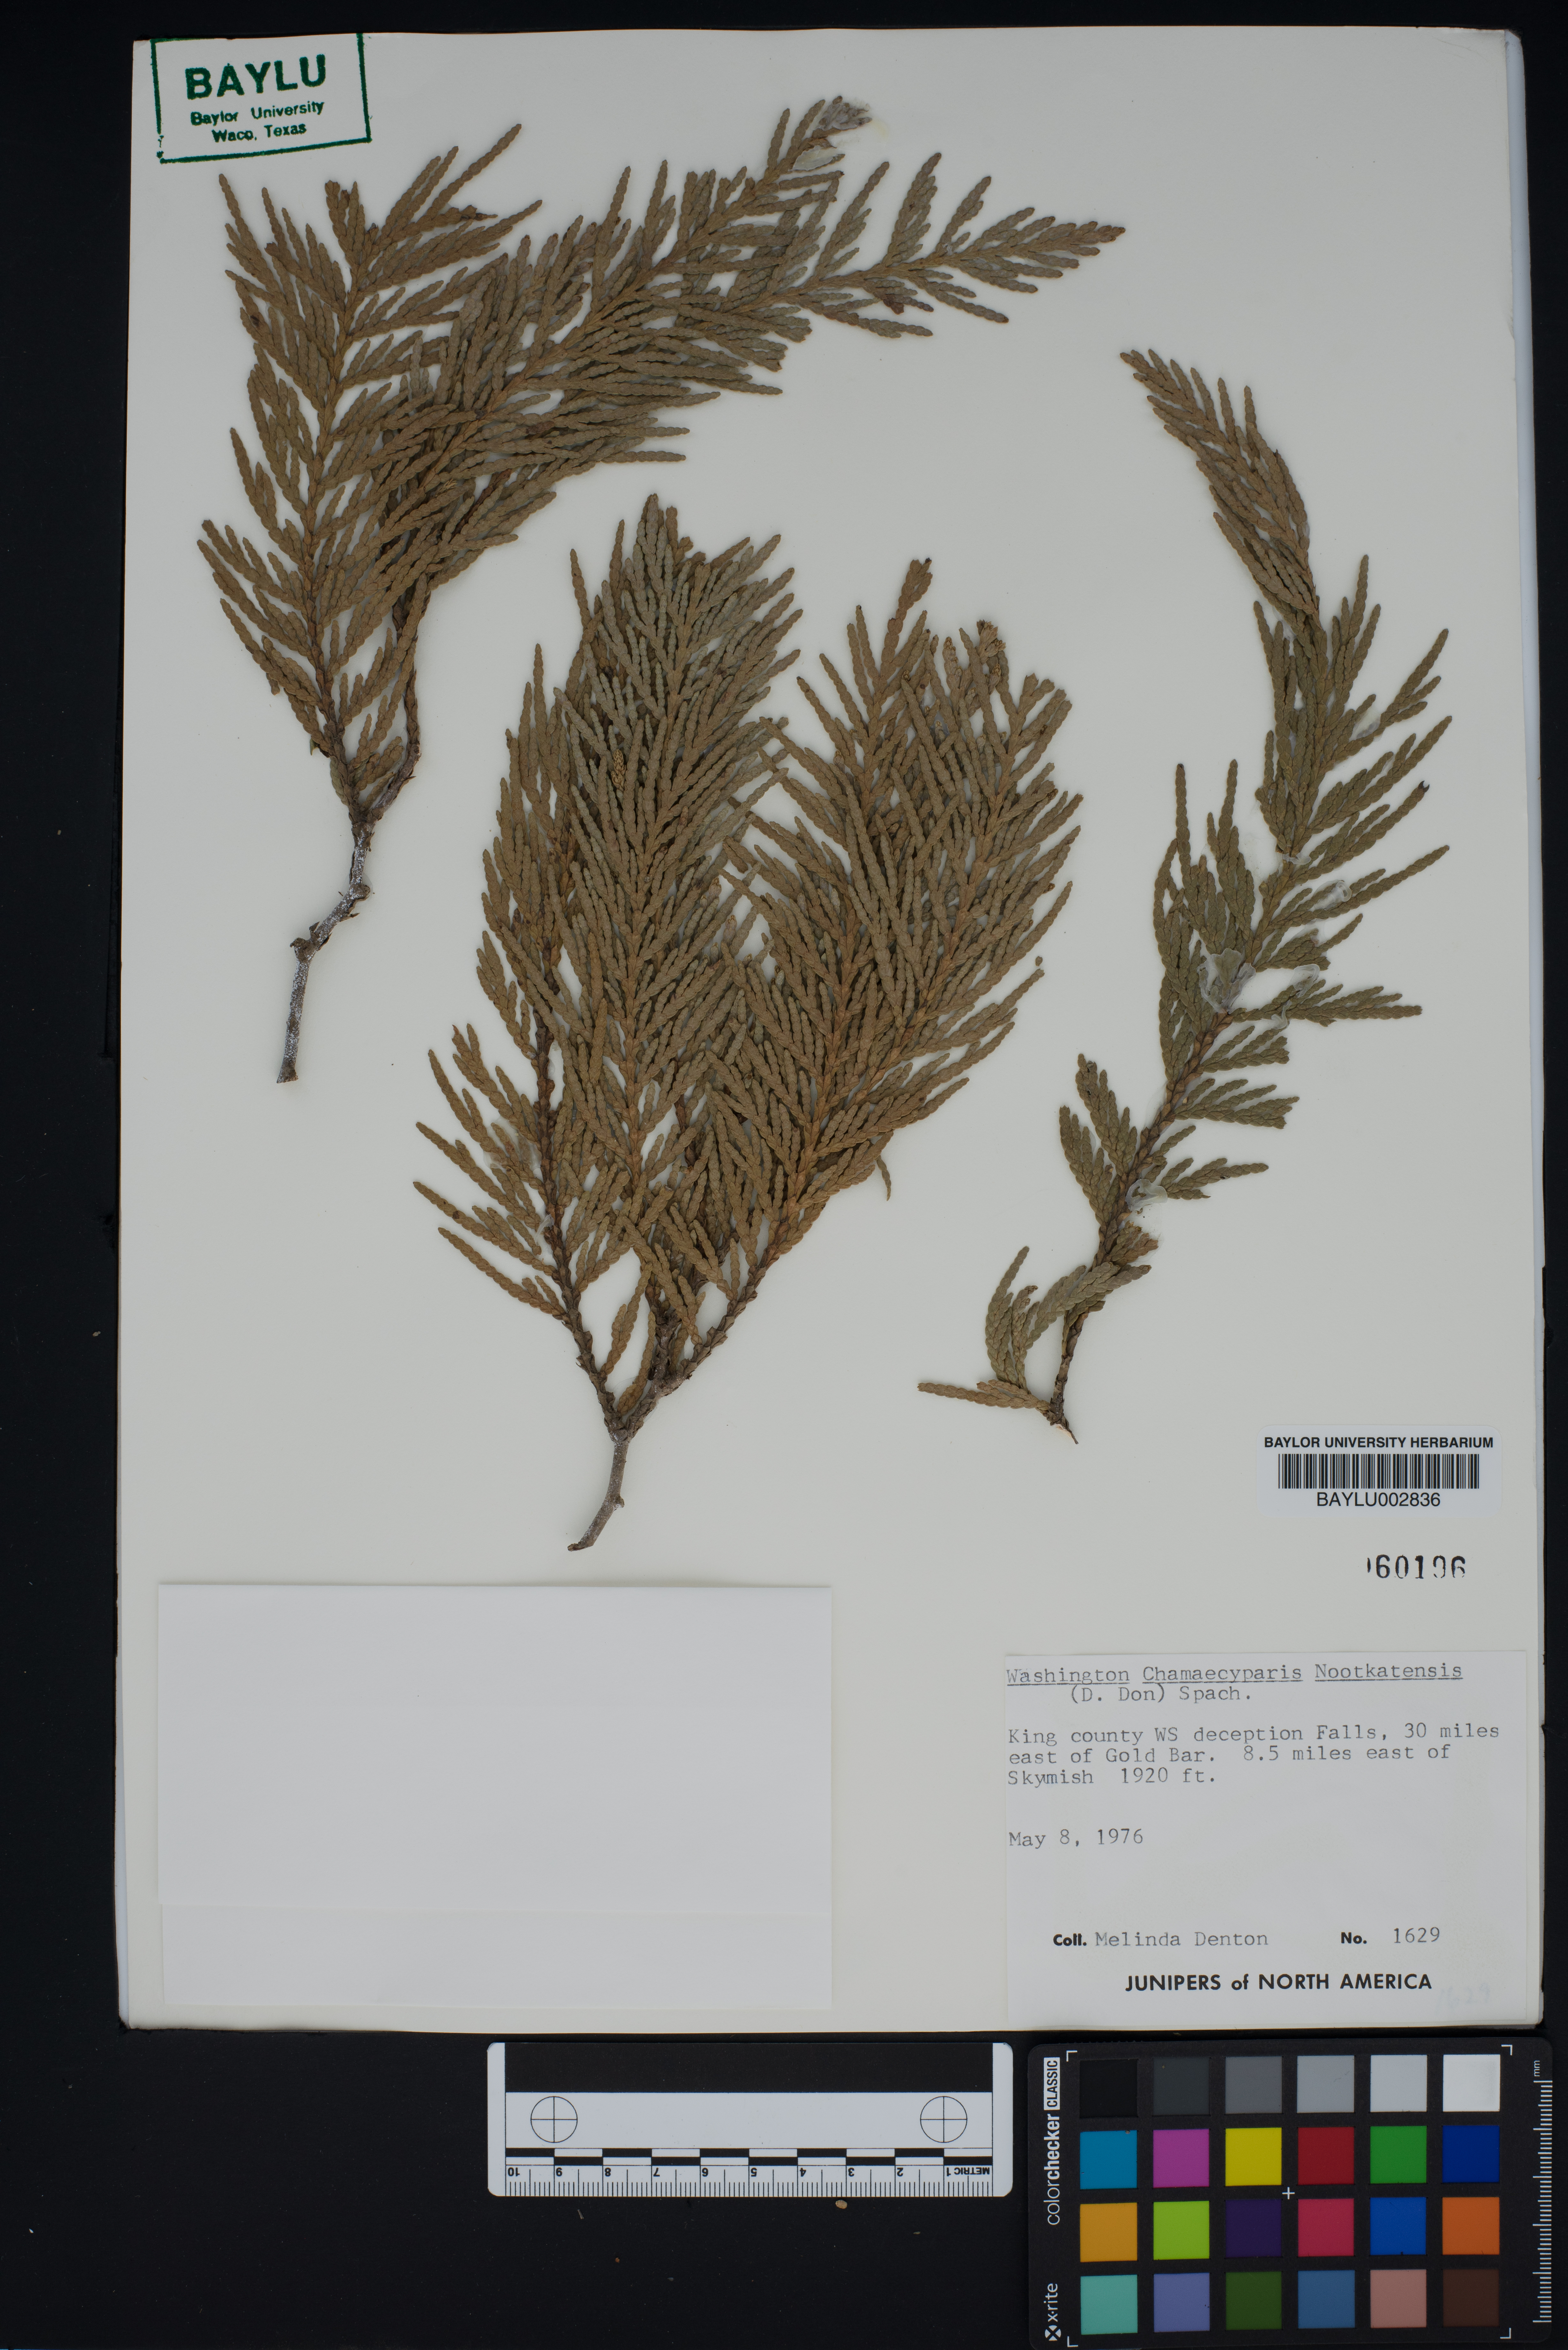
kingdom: Plantae
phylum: Tracheophyta
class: Pinopsida
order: Pinales
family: Cupressaceae
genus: Xanthocyparis
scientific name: Xanthocyparis nootkatensis
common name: Nootka cypress
